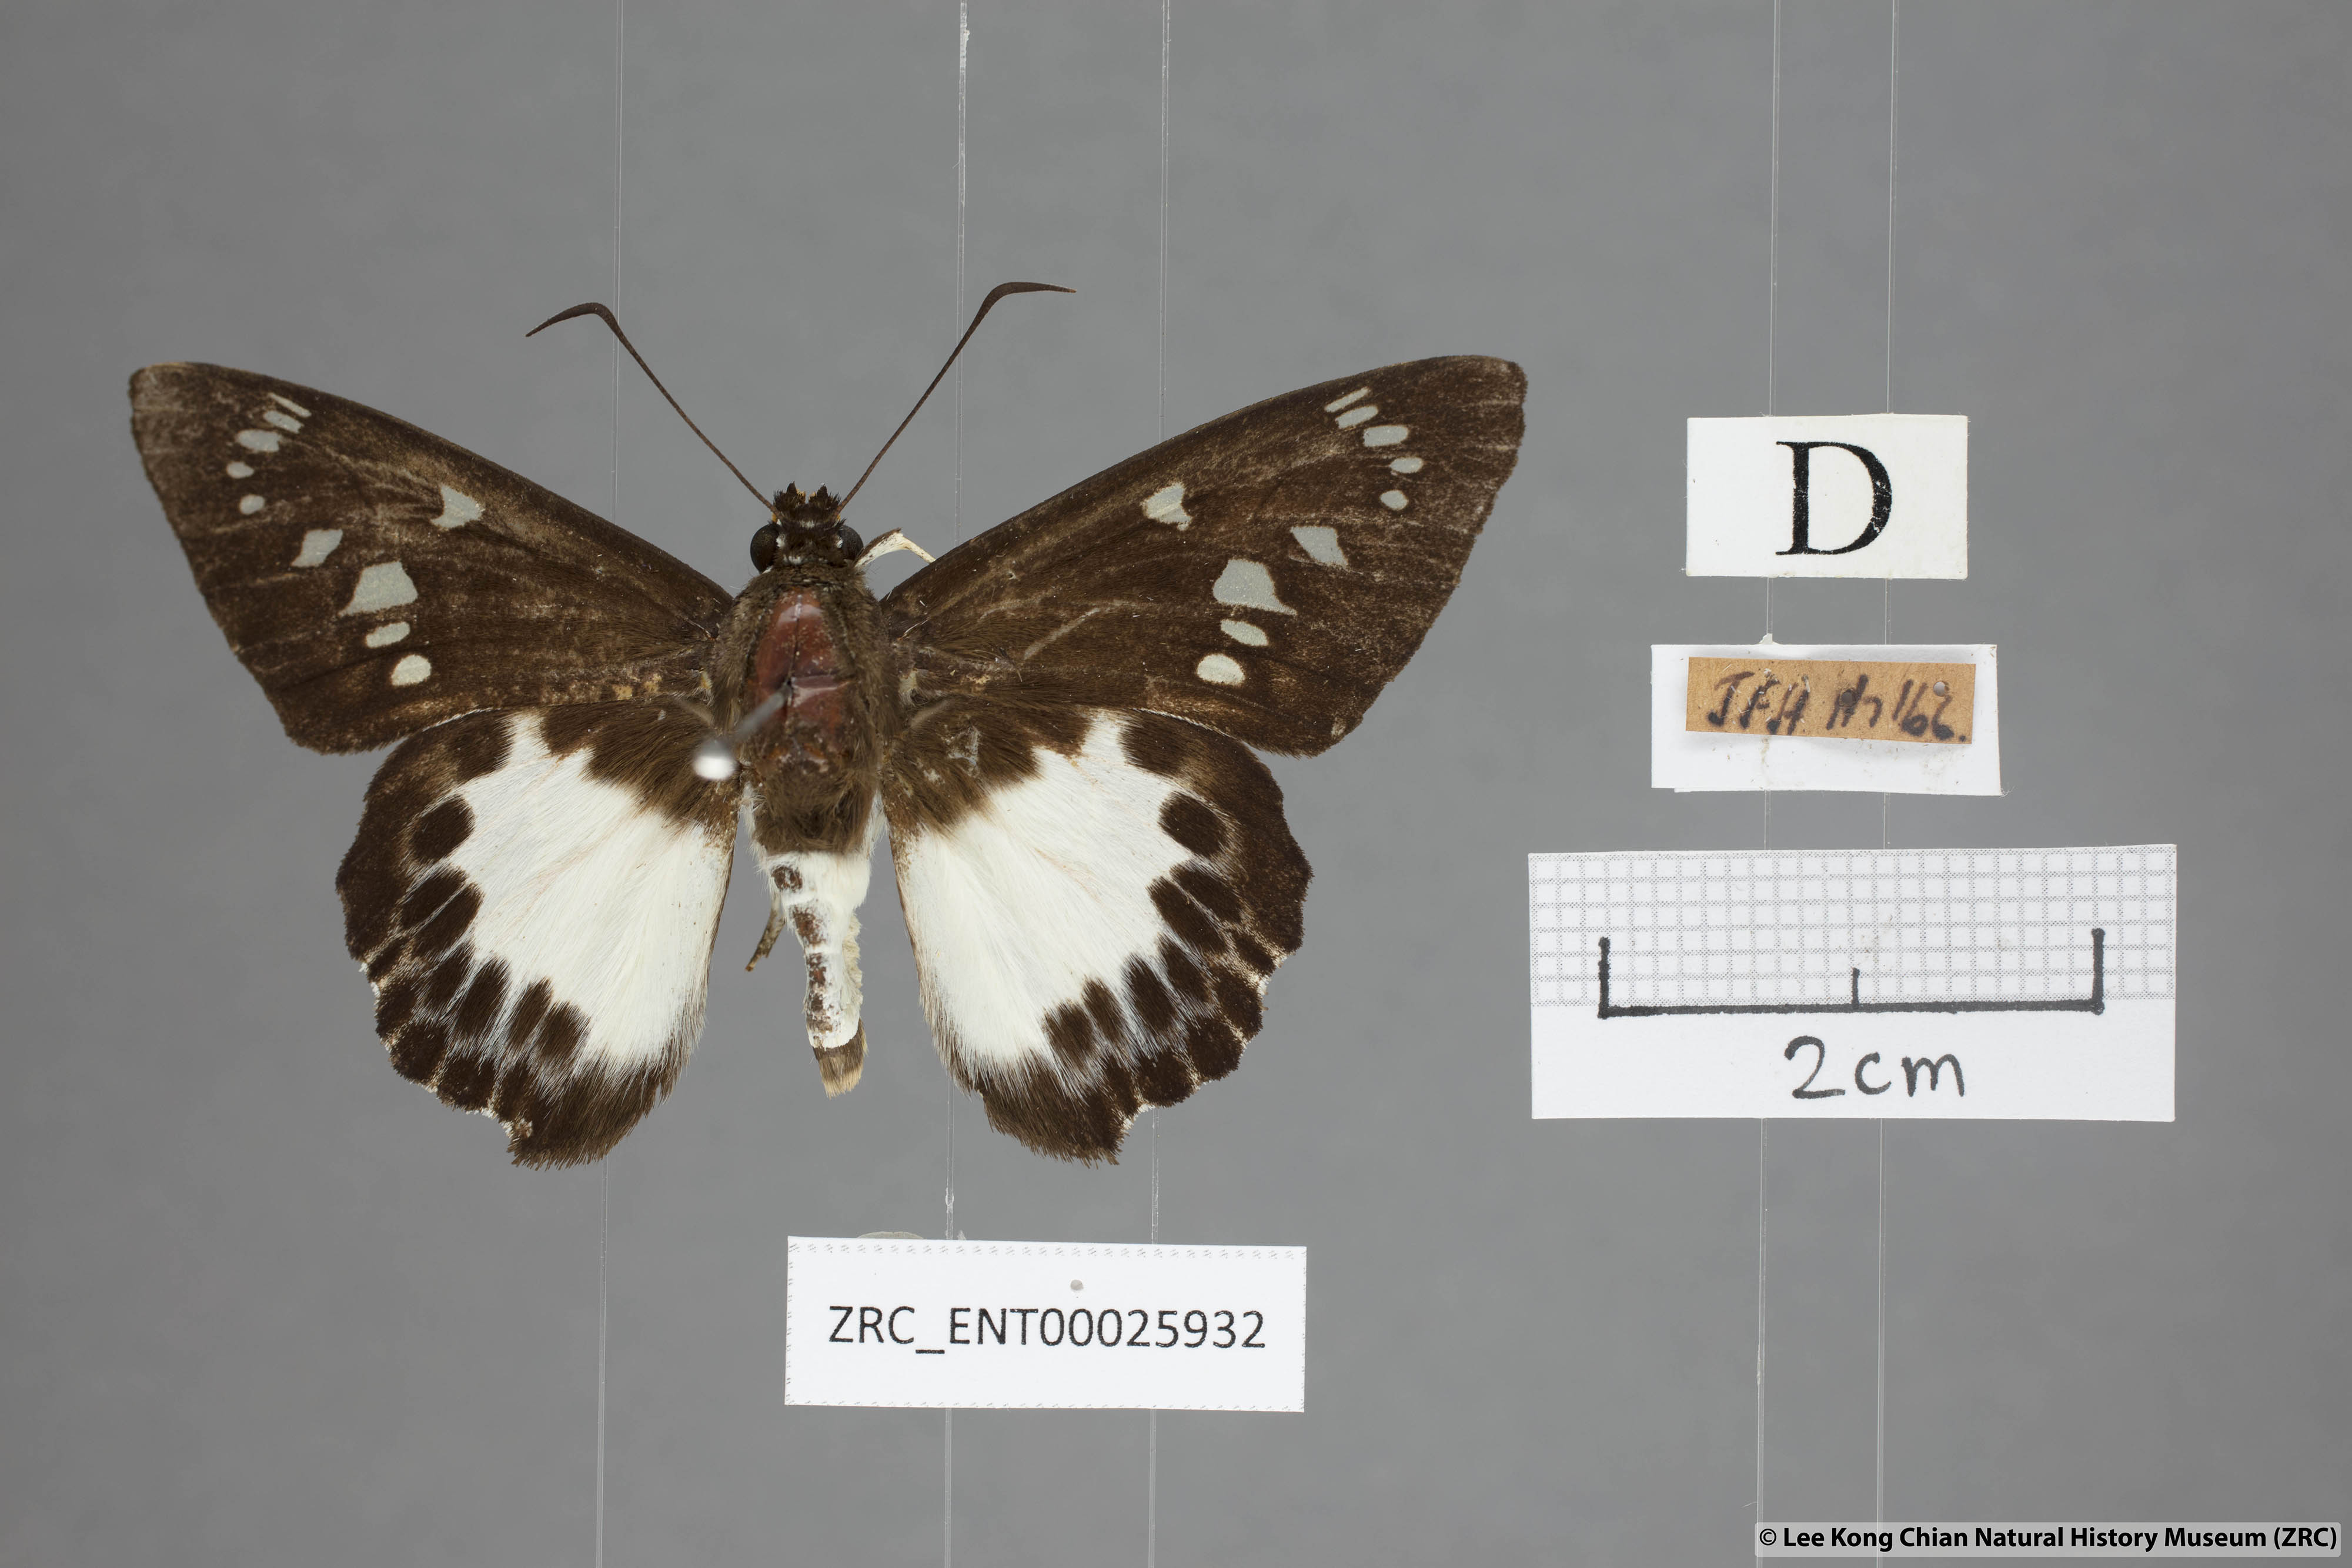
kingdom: Animalia
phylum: Arthropoda
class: Insecta
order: Lepidoptera
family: Hesperiidae
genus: Satarupa
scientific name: Satarupa gopala
